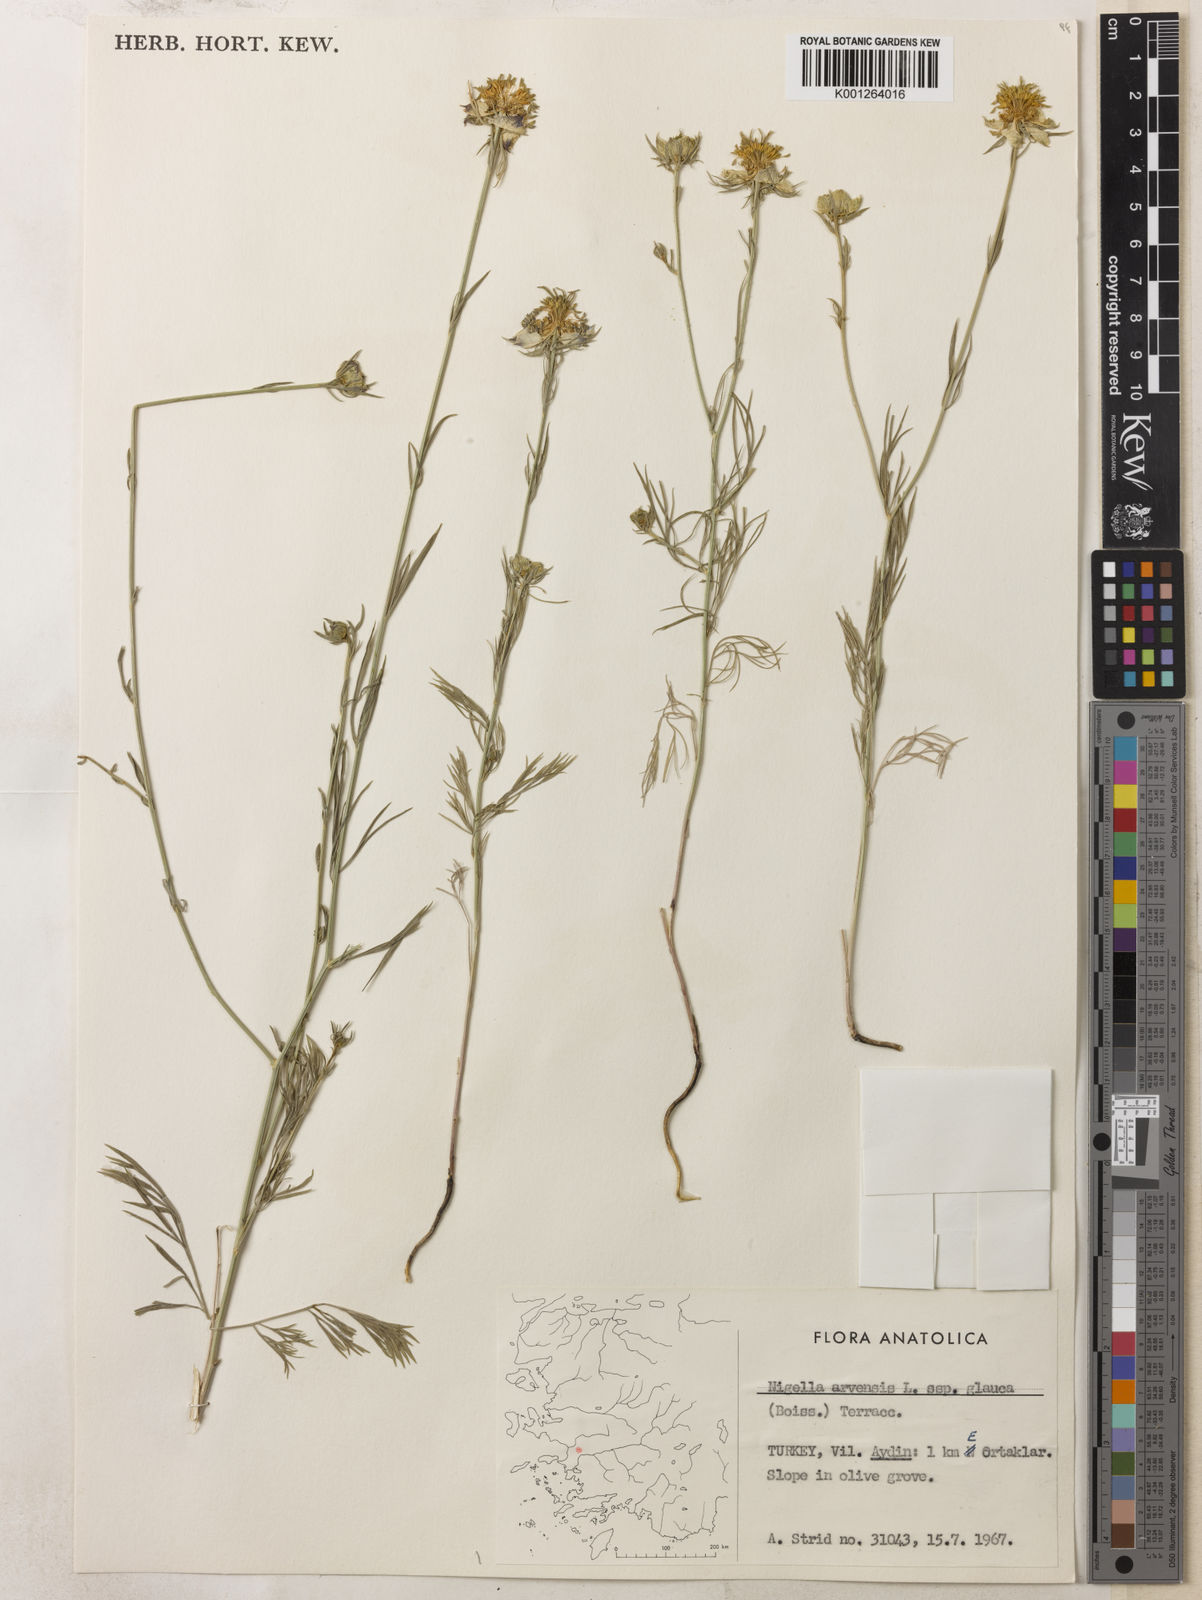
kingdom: Plantae
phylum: Tracheophyta
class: Magnoliopsida
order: Ranunculales
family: Ranunculaceae
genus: Nigella
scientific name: Nigella arvensis
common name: Wild fennel-flower
